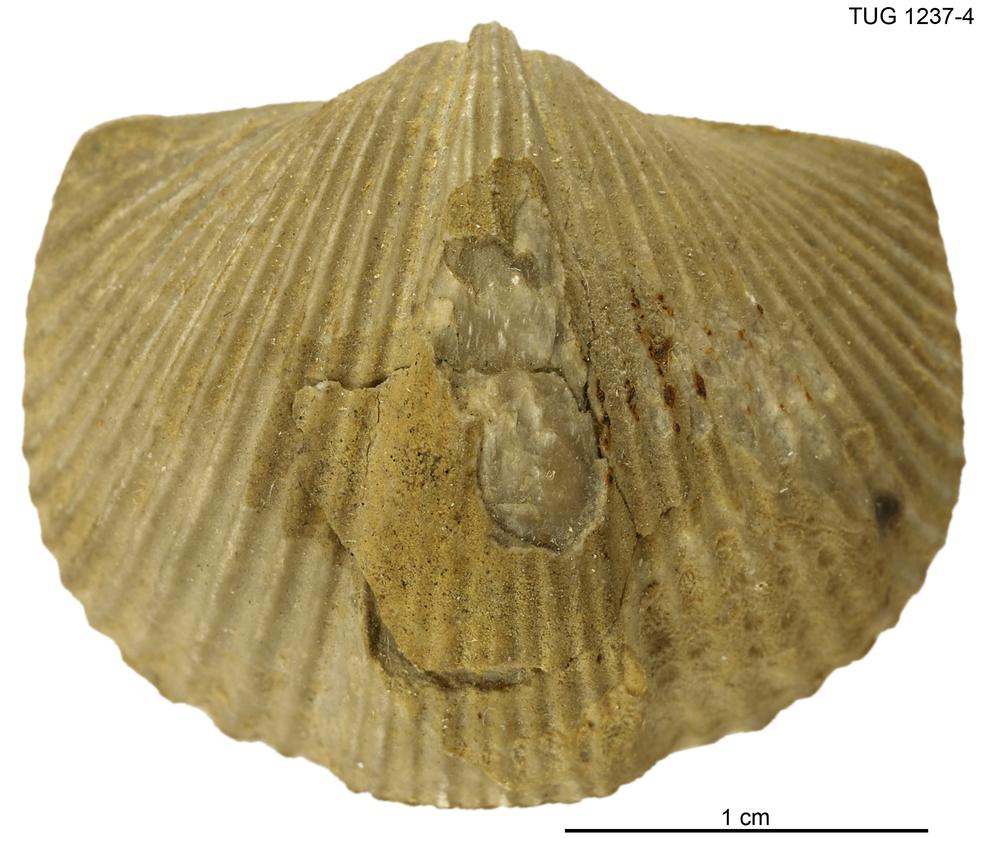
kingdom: Animalia
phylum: Brachiopoda
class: Rhynchonellata
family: Platystrophiidae
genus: Neoplatystrophia
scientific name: Neoplatystrophia lutkevichi
